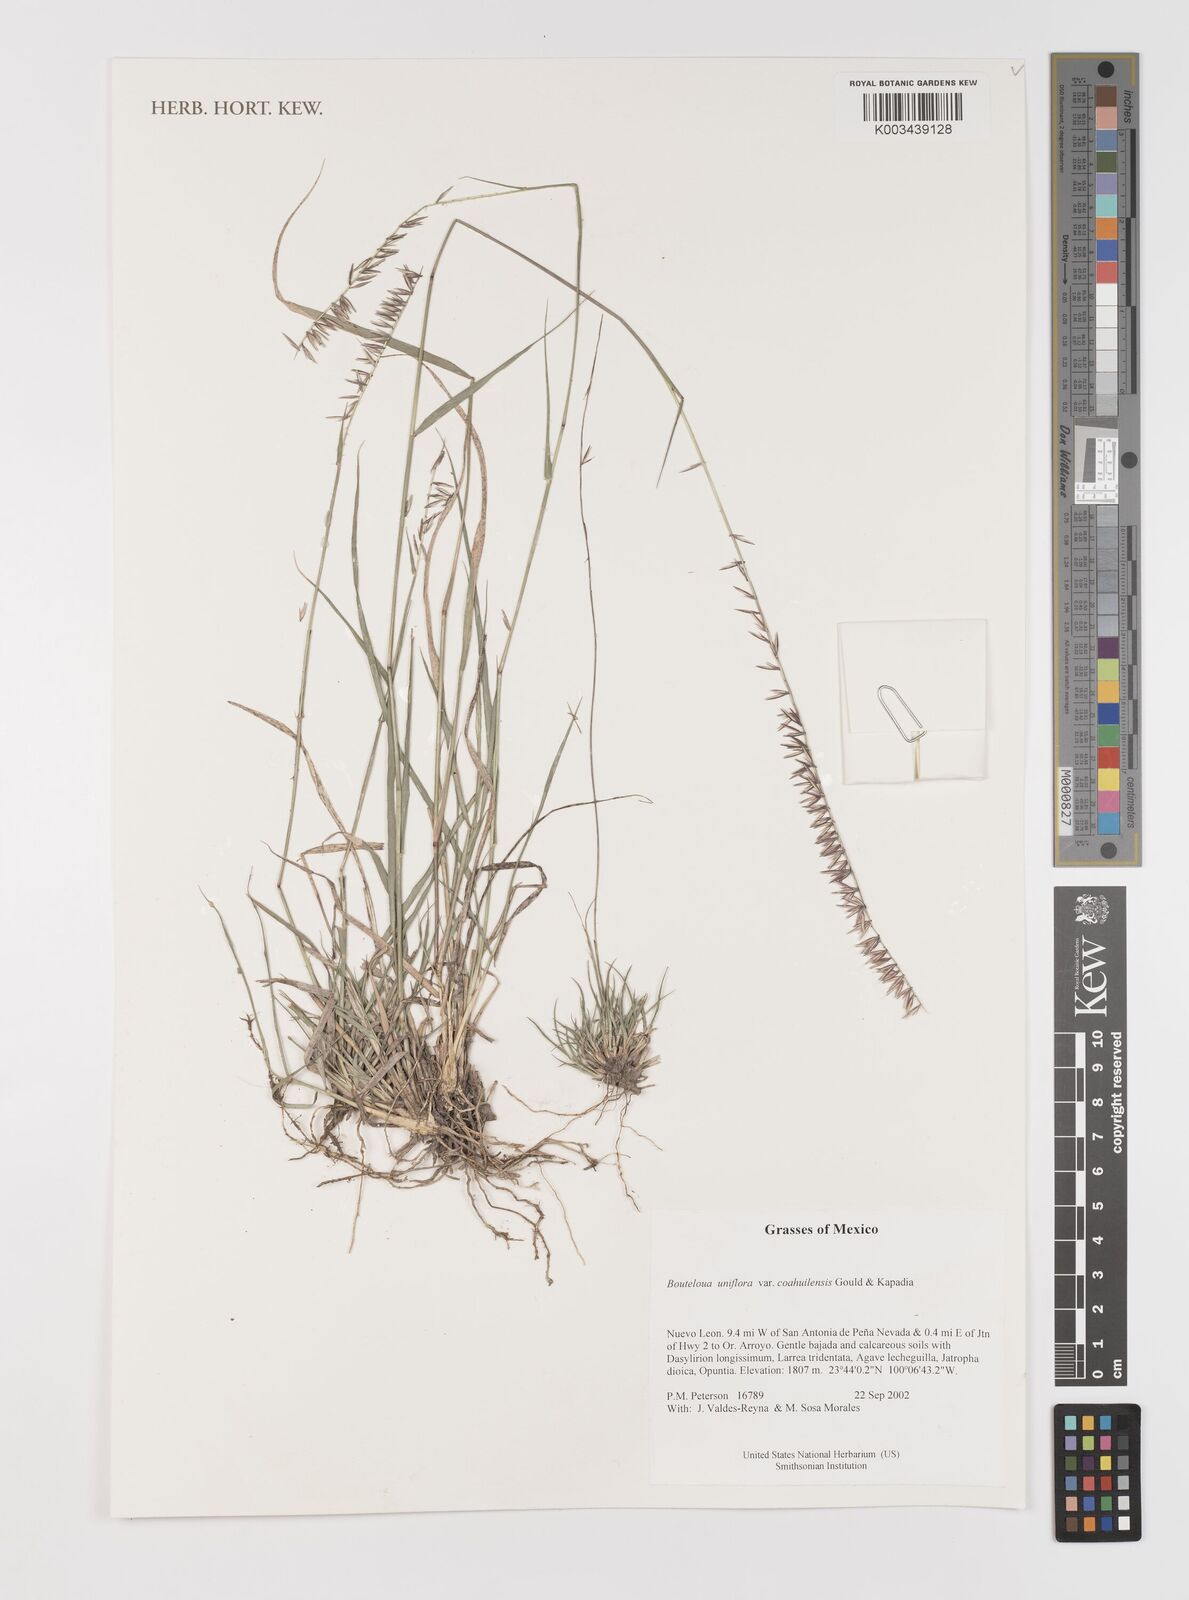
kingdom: Plantae
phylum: Tracheophyta
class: Liliopsida
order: Poales
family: Poaceae
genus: Bouteloua
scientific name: Bouteloua uniflora
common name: Neally's grama
